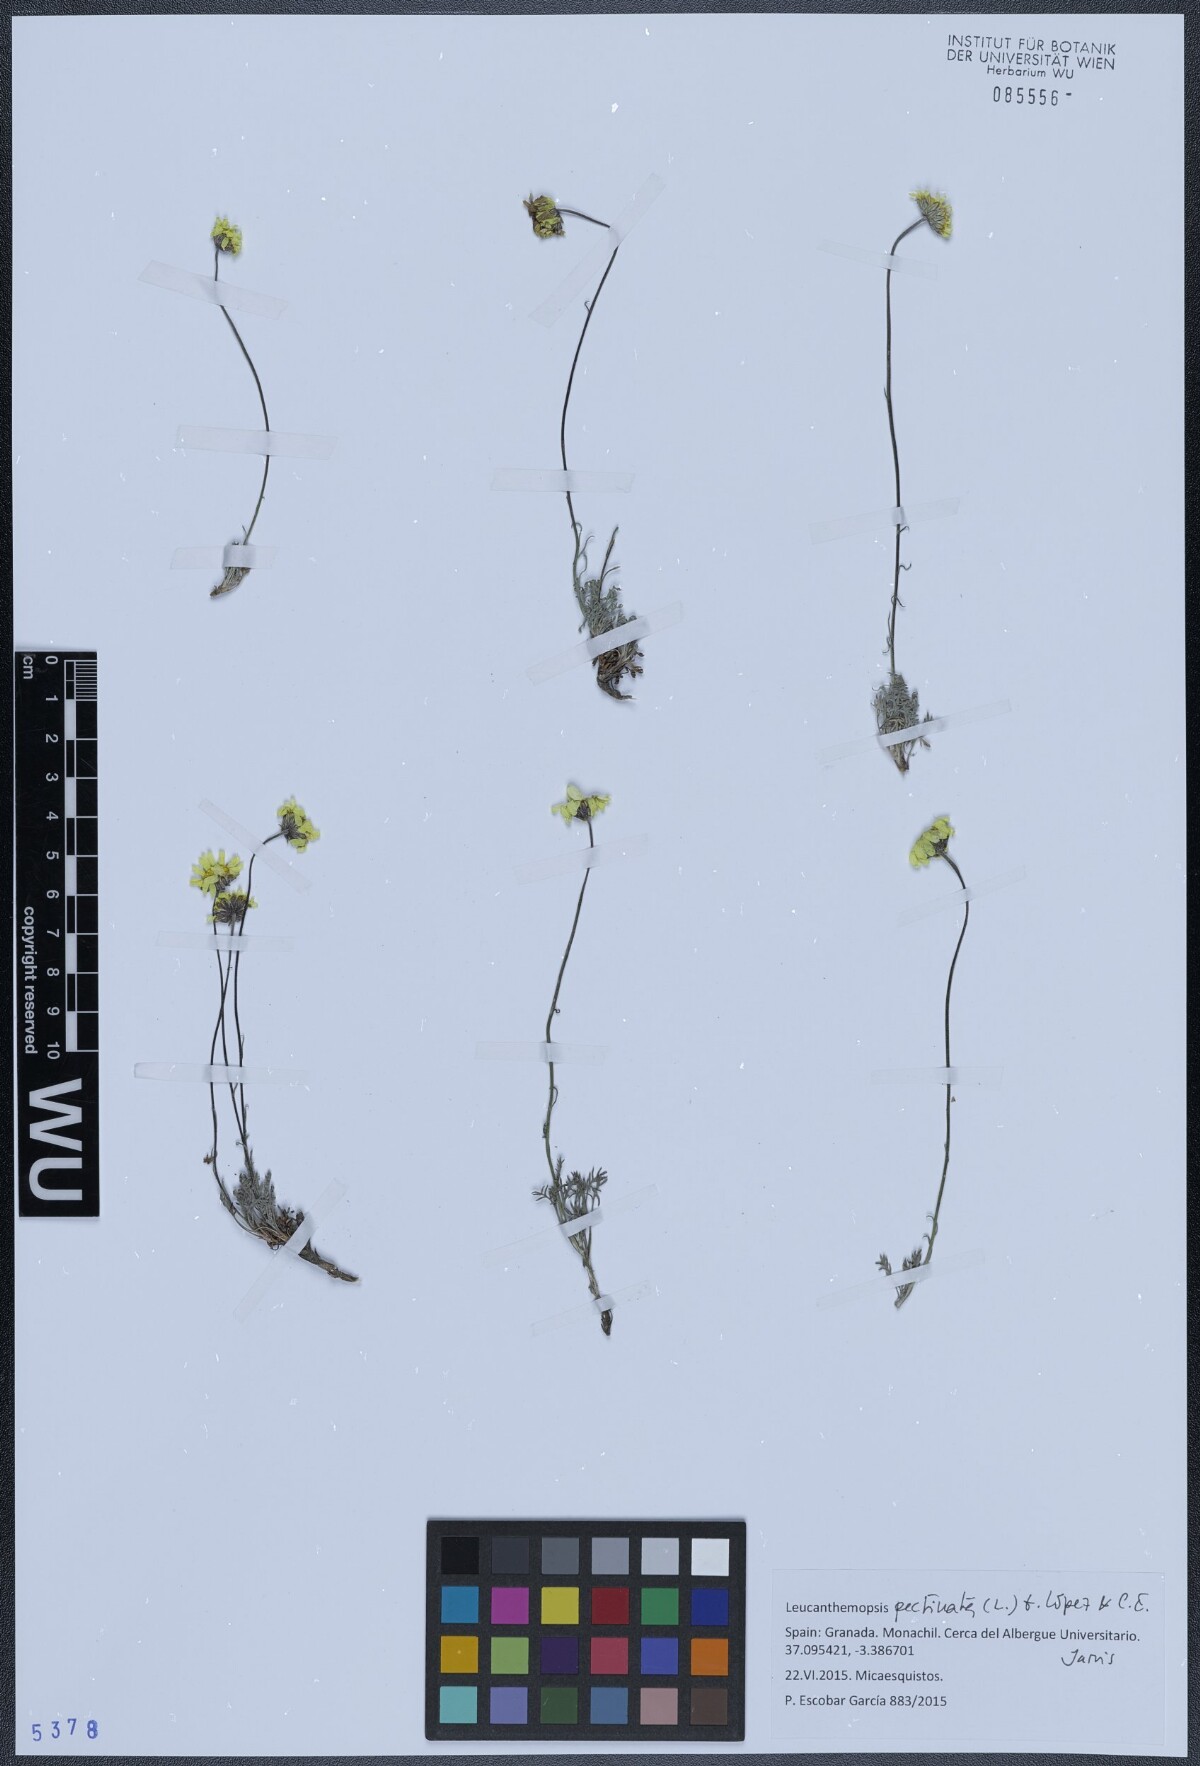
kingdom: Plantae
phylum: Tracheophyta
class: Magnoliopsida
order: Asterales
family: Asteraceae
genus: Leucanthemopsis
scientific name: Leucanthemopsis pectinata
